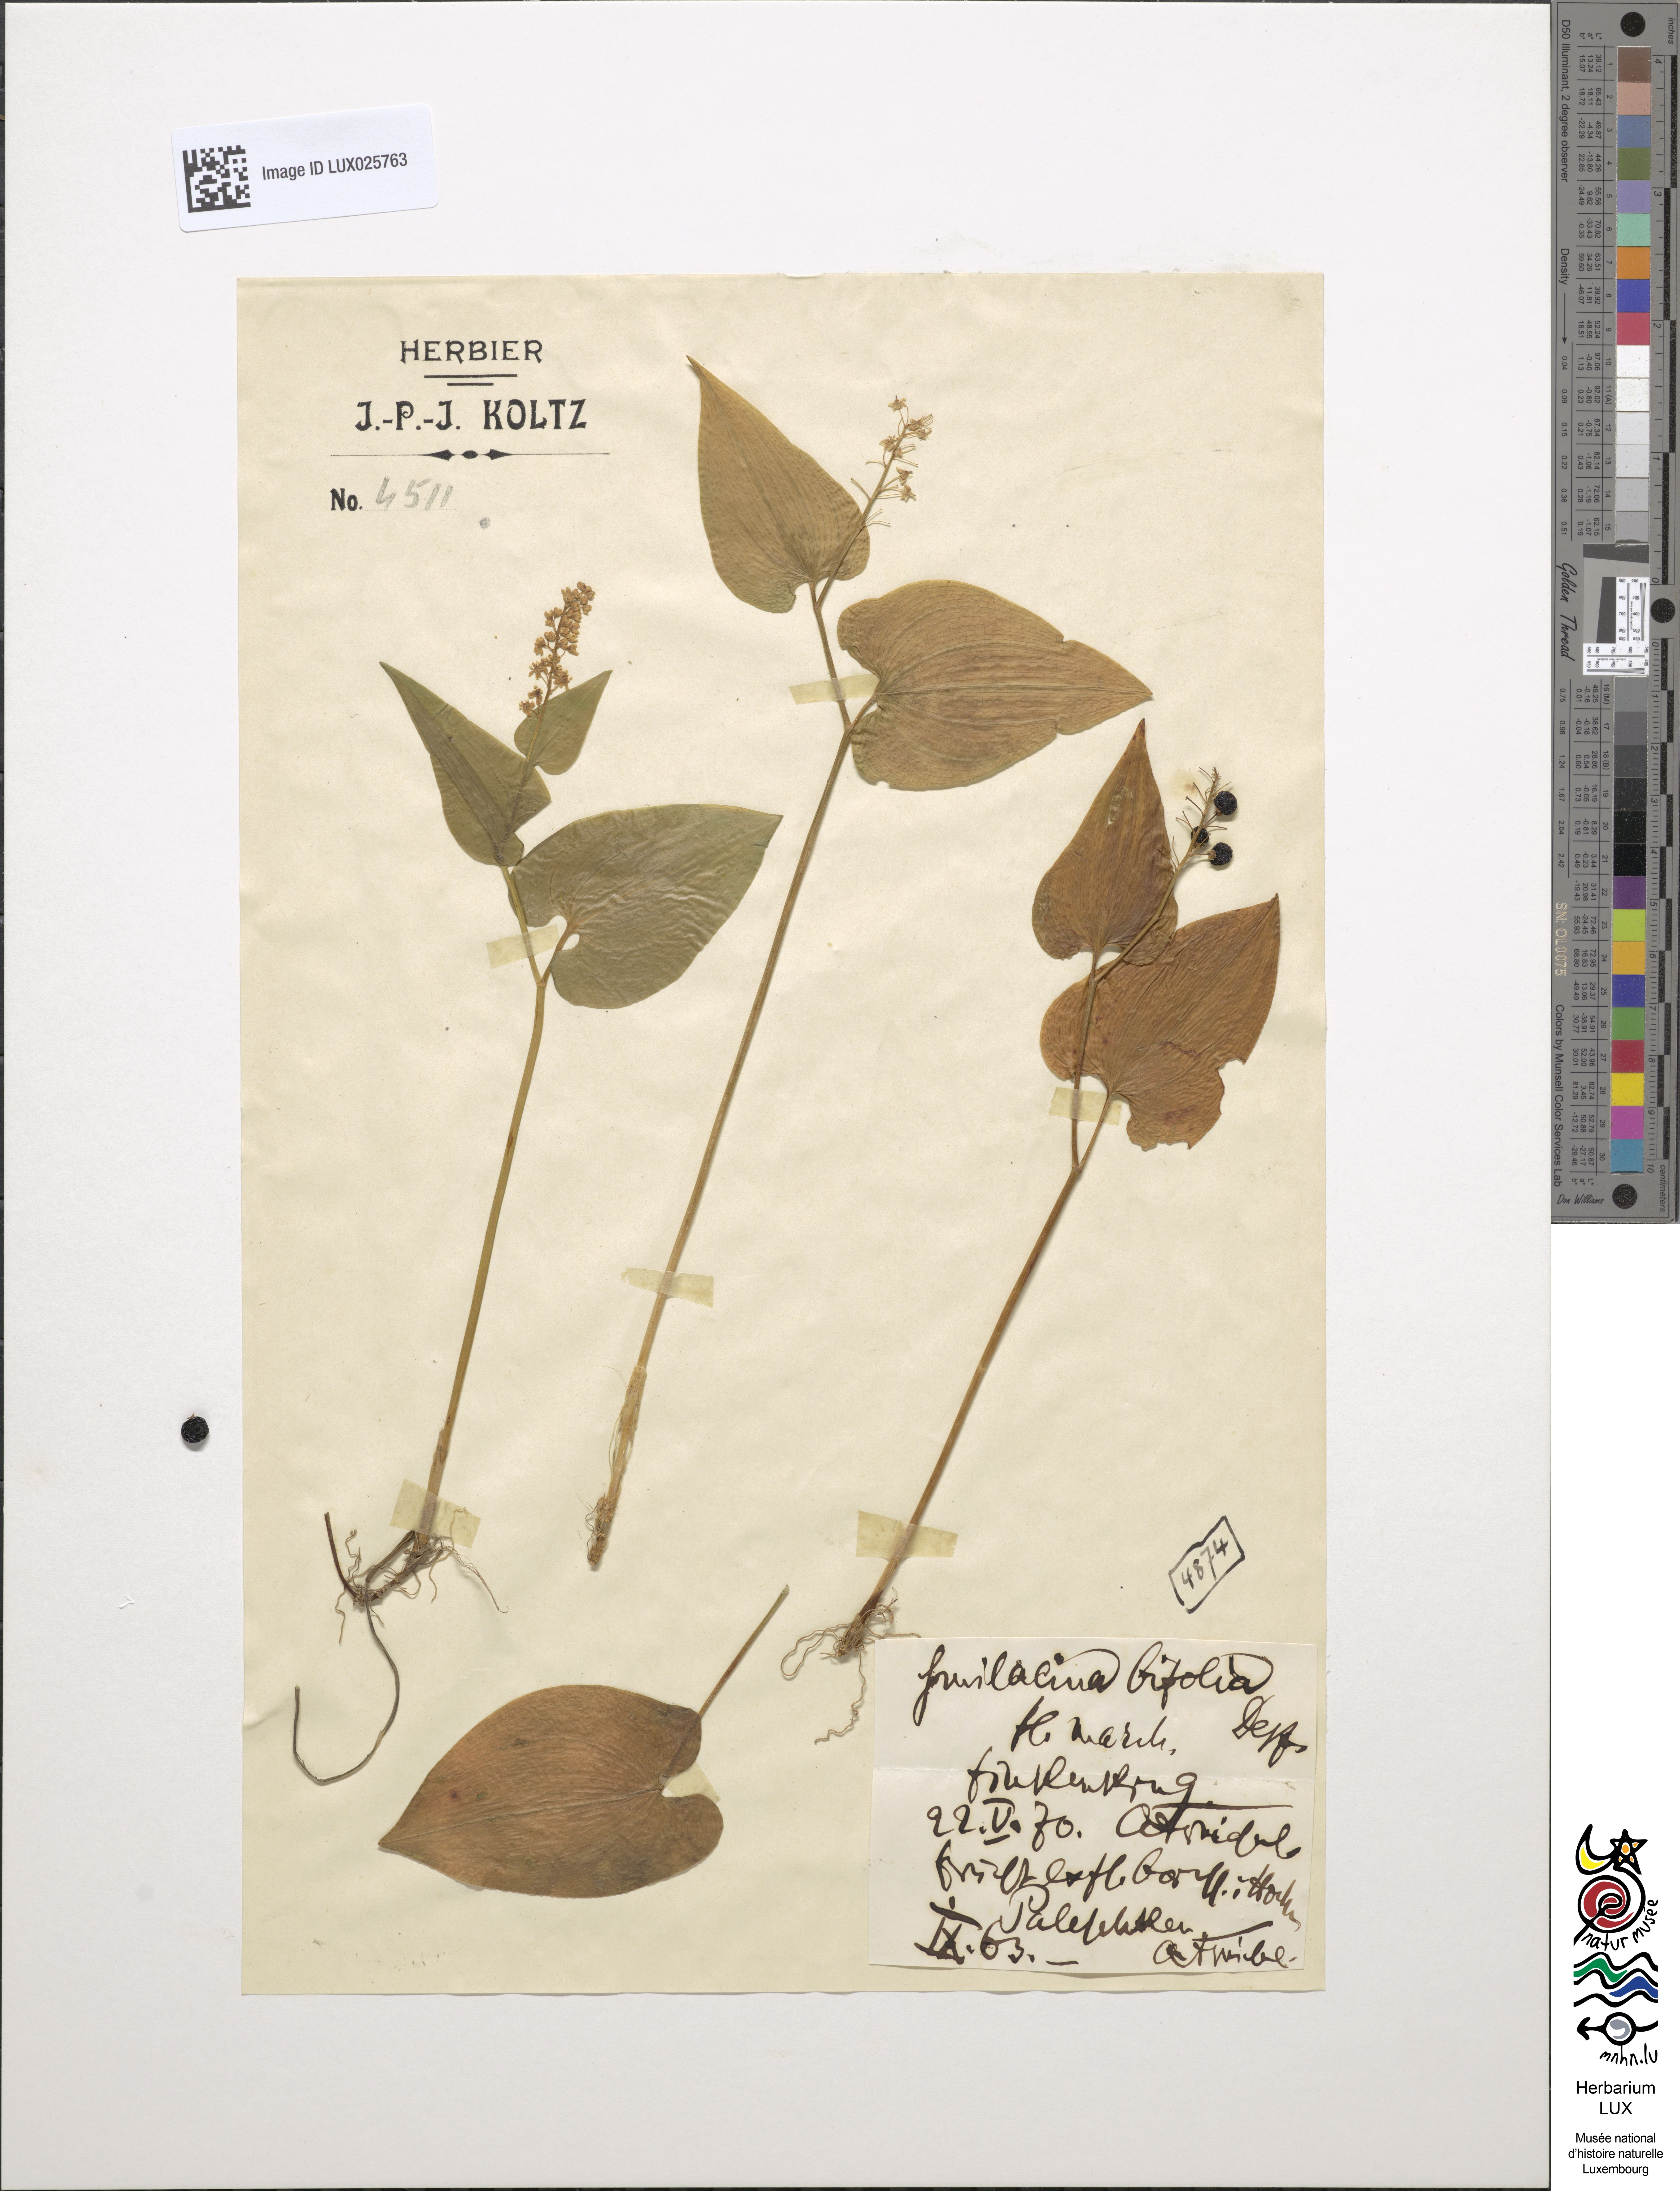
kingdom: Plantae
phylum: Tracheophyta
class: Liliopsida
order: Asparagales
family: Asparagaceae
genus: Maianthemum
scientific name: Maianthemum bifolium
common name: May lily
